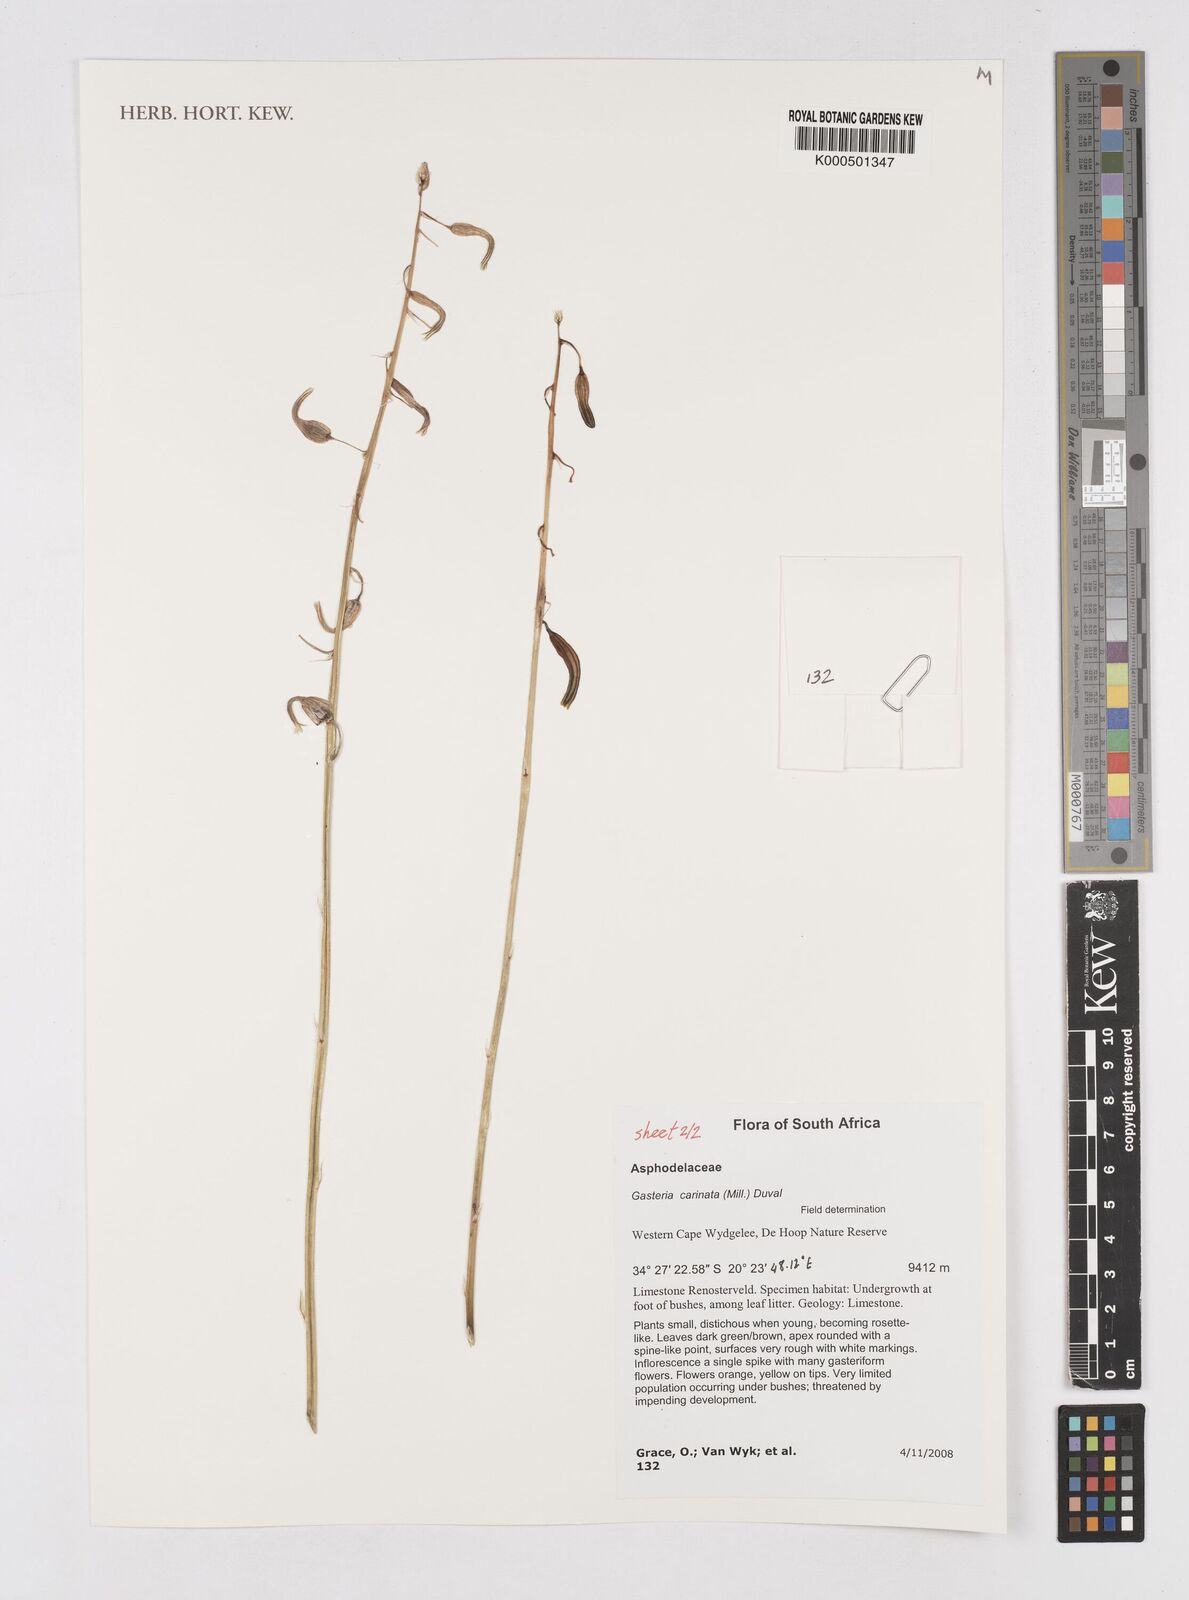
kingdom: Plantae
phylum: Tracheophyta
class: Liliopsida
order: Asparagales
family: Asphodelaceae
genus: Gasteria
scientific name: Gasteria carinata
